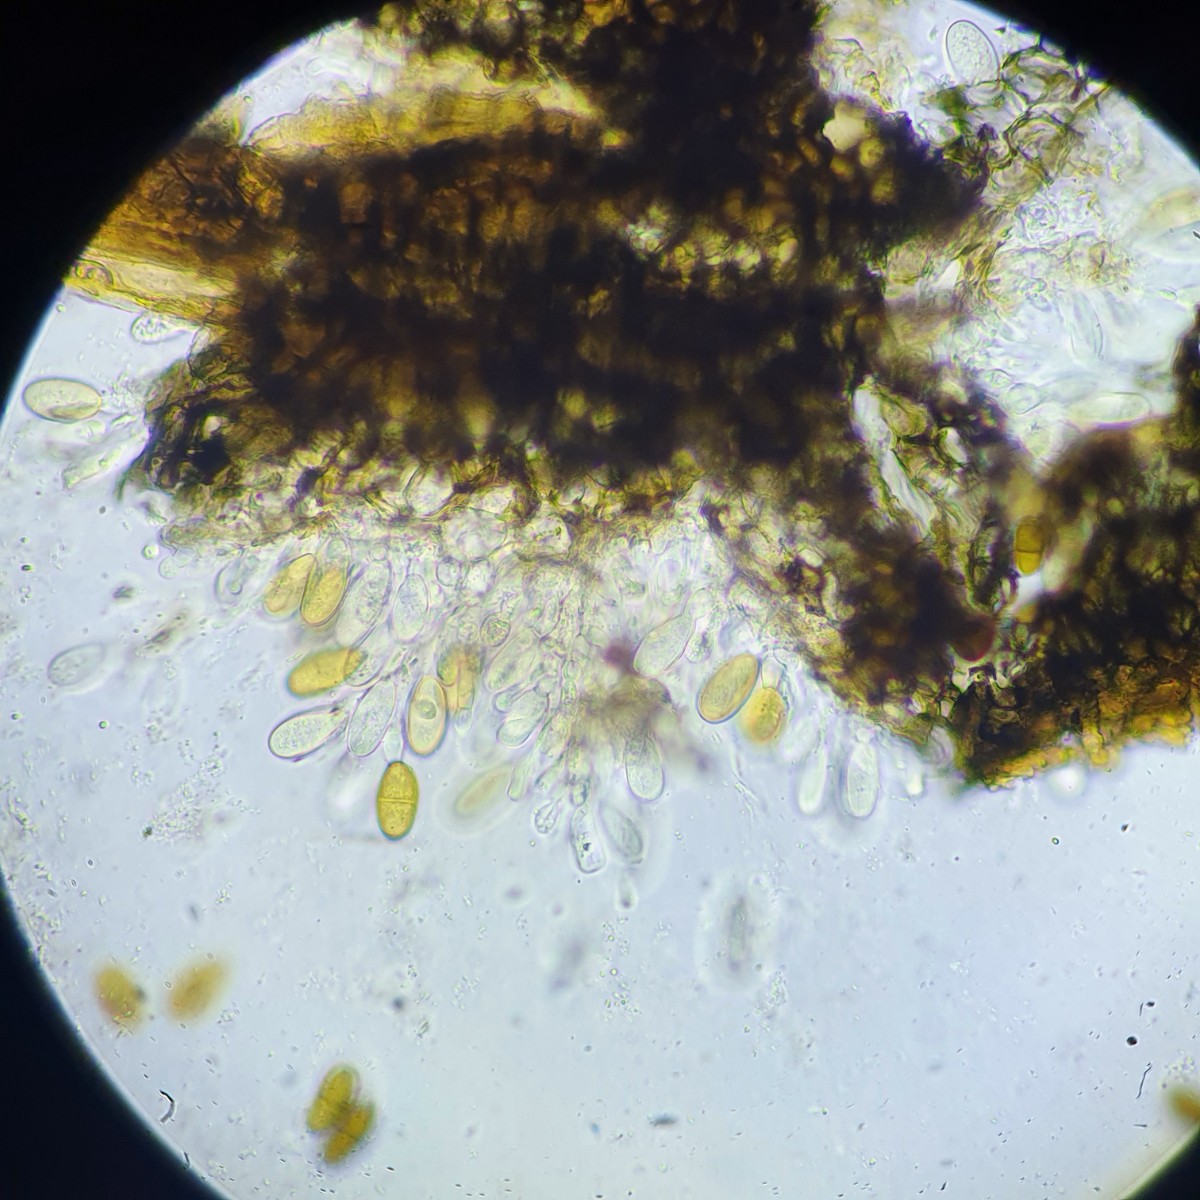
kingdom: Fungi
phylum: Ascomycota
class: Dothideomycetes
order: Botryosphaeriales
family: Botryosphaeriaceae
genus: Diplodia
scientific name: Diplodia forsythiae
